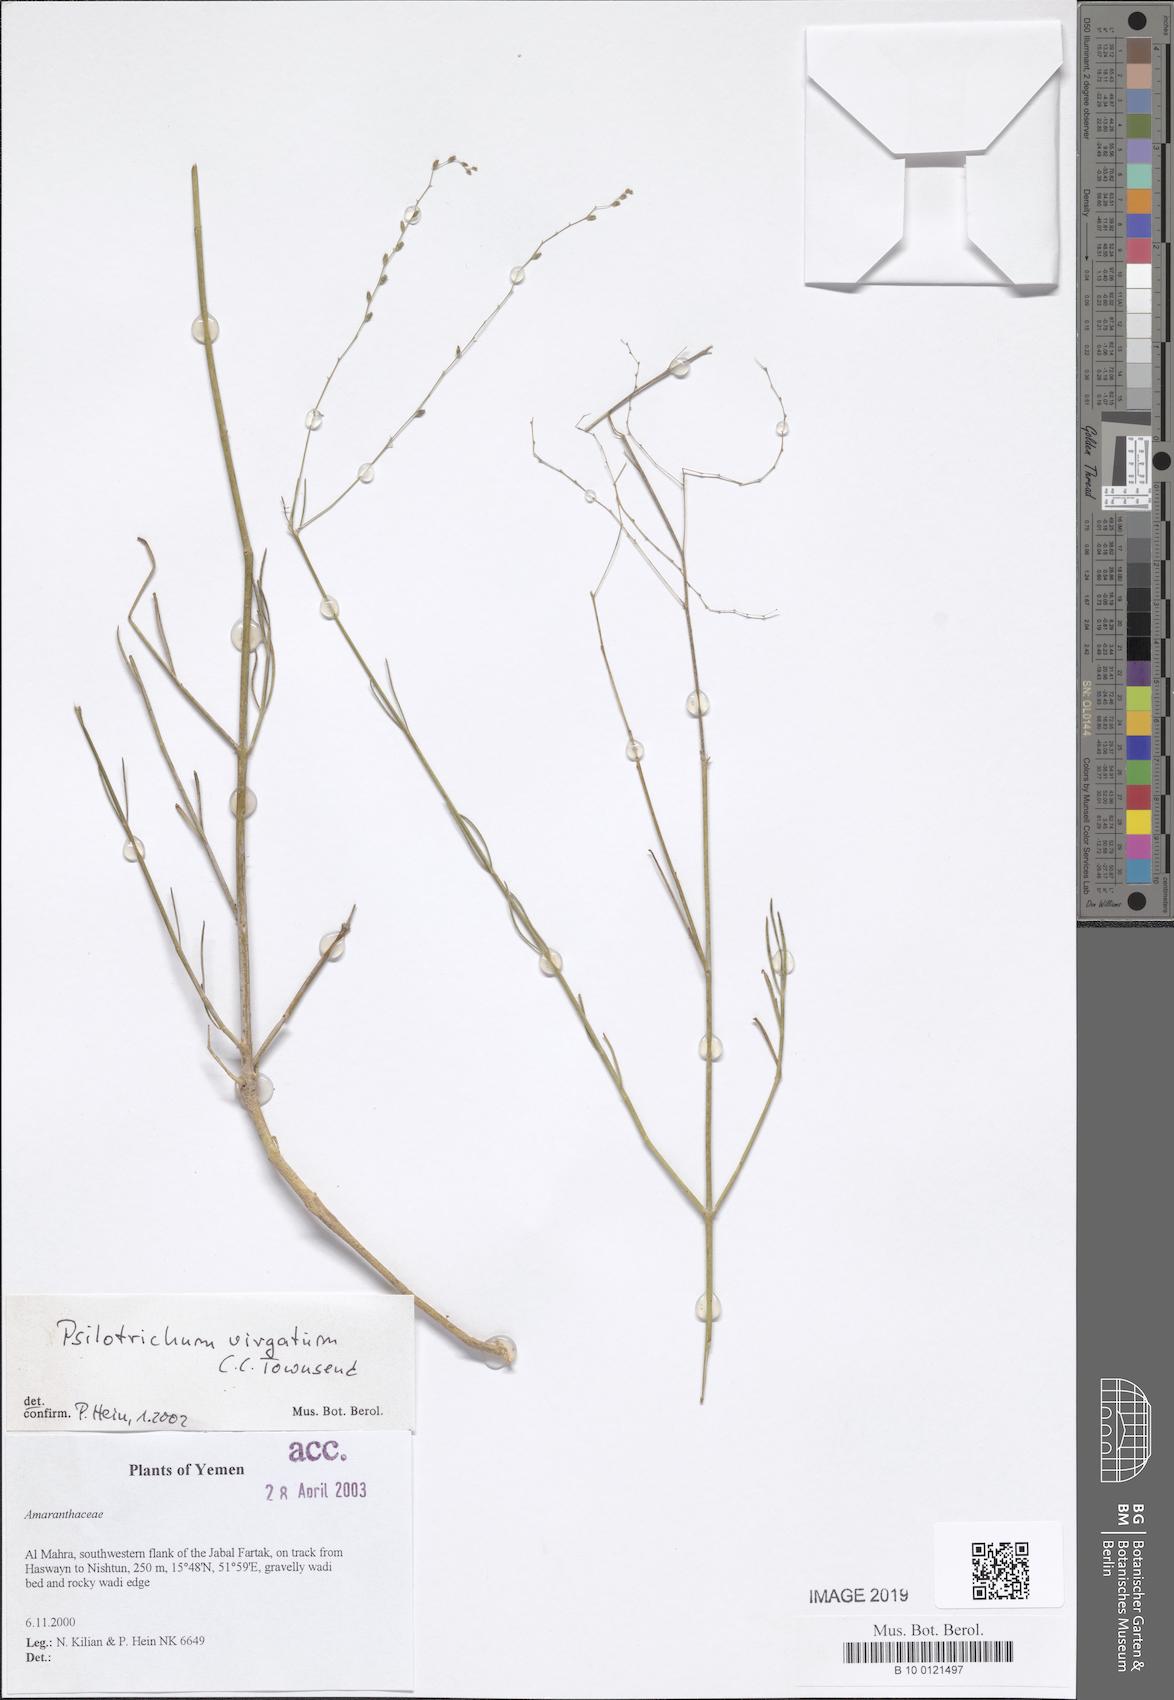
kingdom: Plantae
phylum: Tracheophyta
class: Magnoliopsida
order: Caryophyllales
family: Amaranthaceae
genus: Psilotrichum
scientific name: Psilotrichum virgatum
